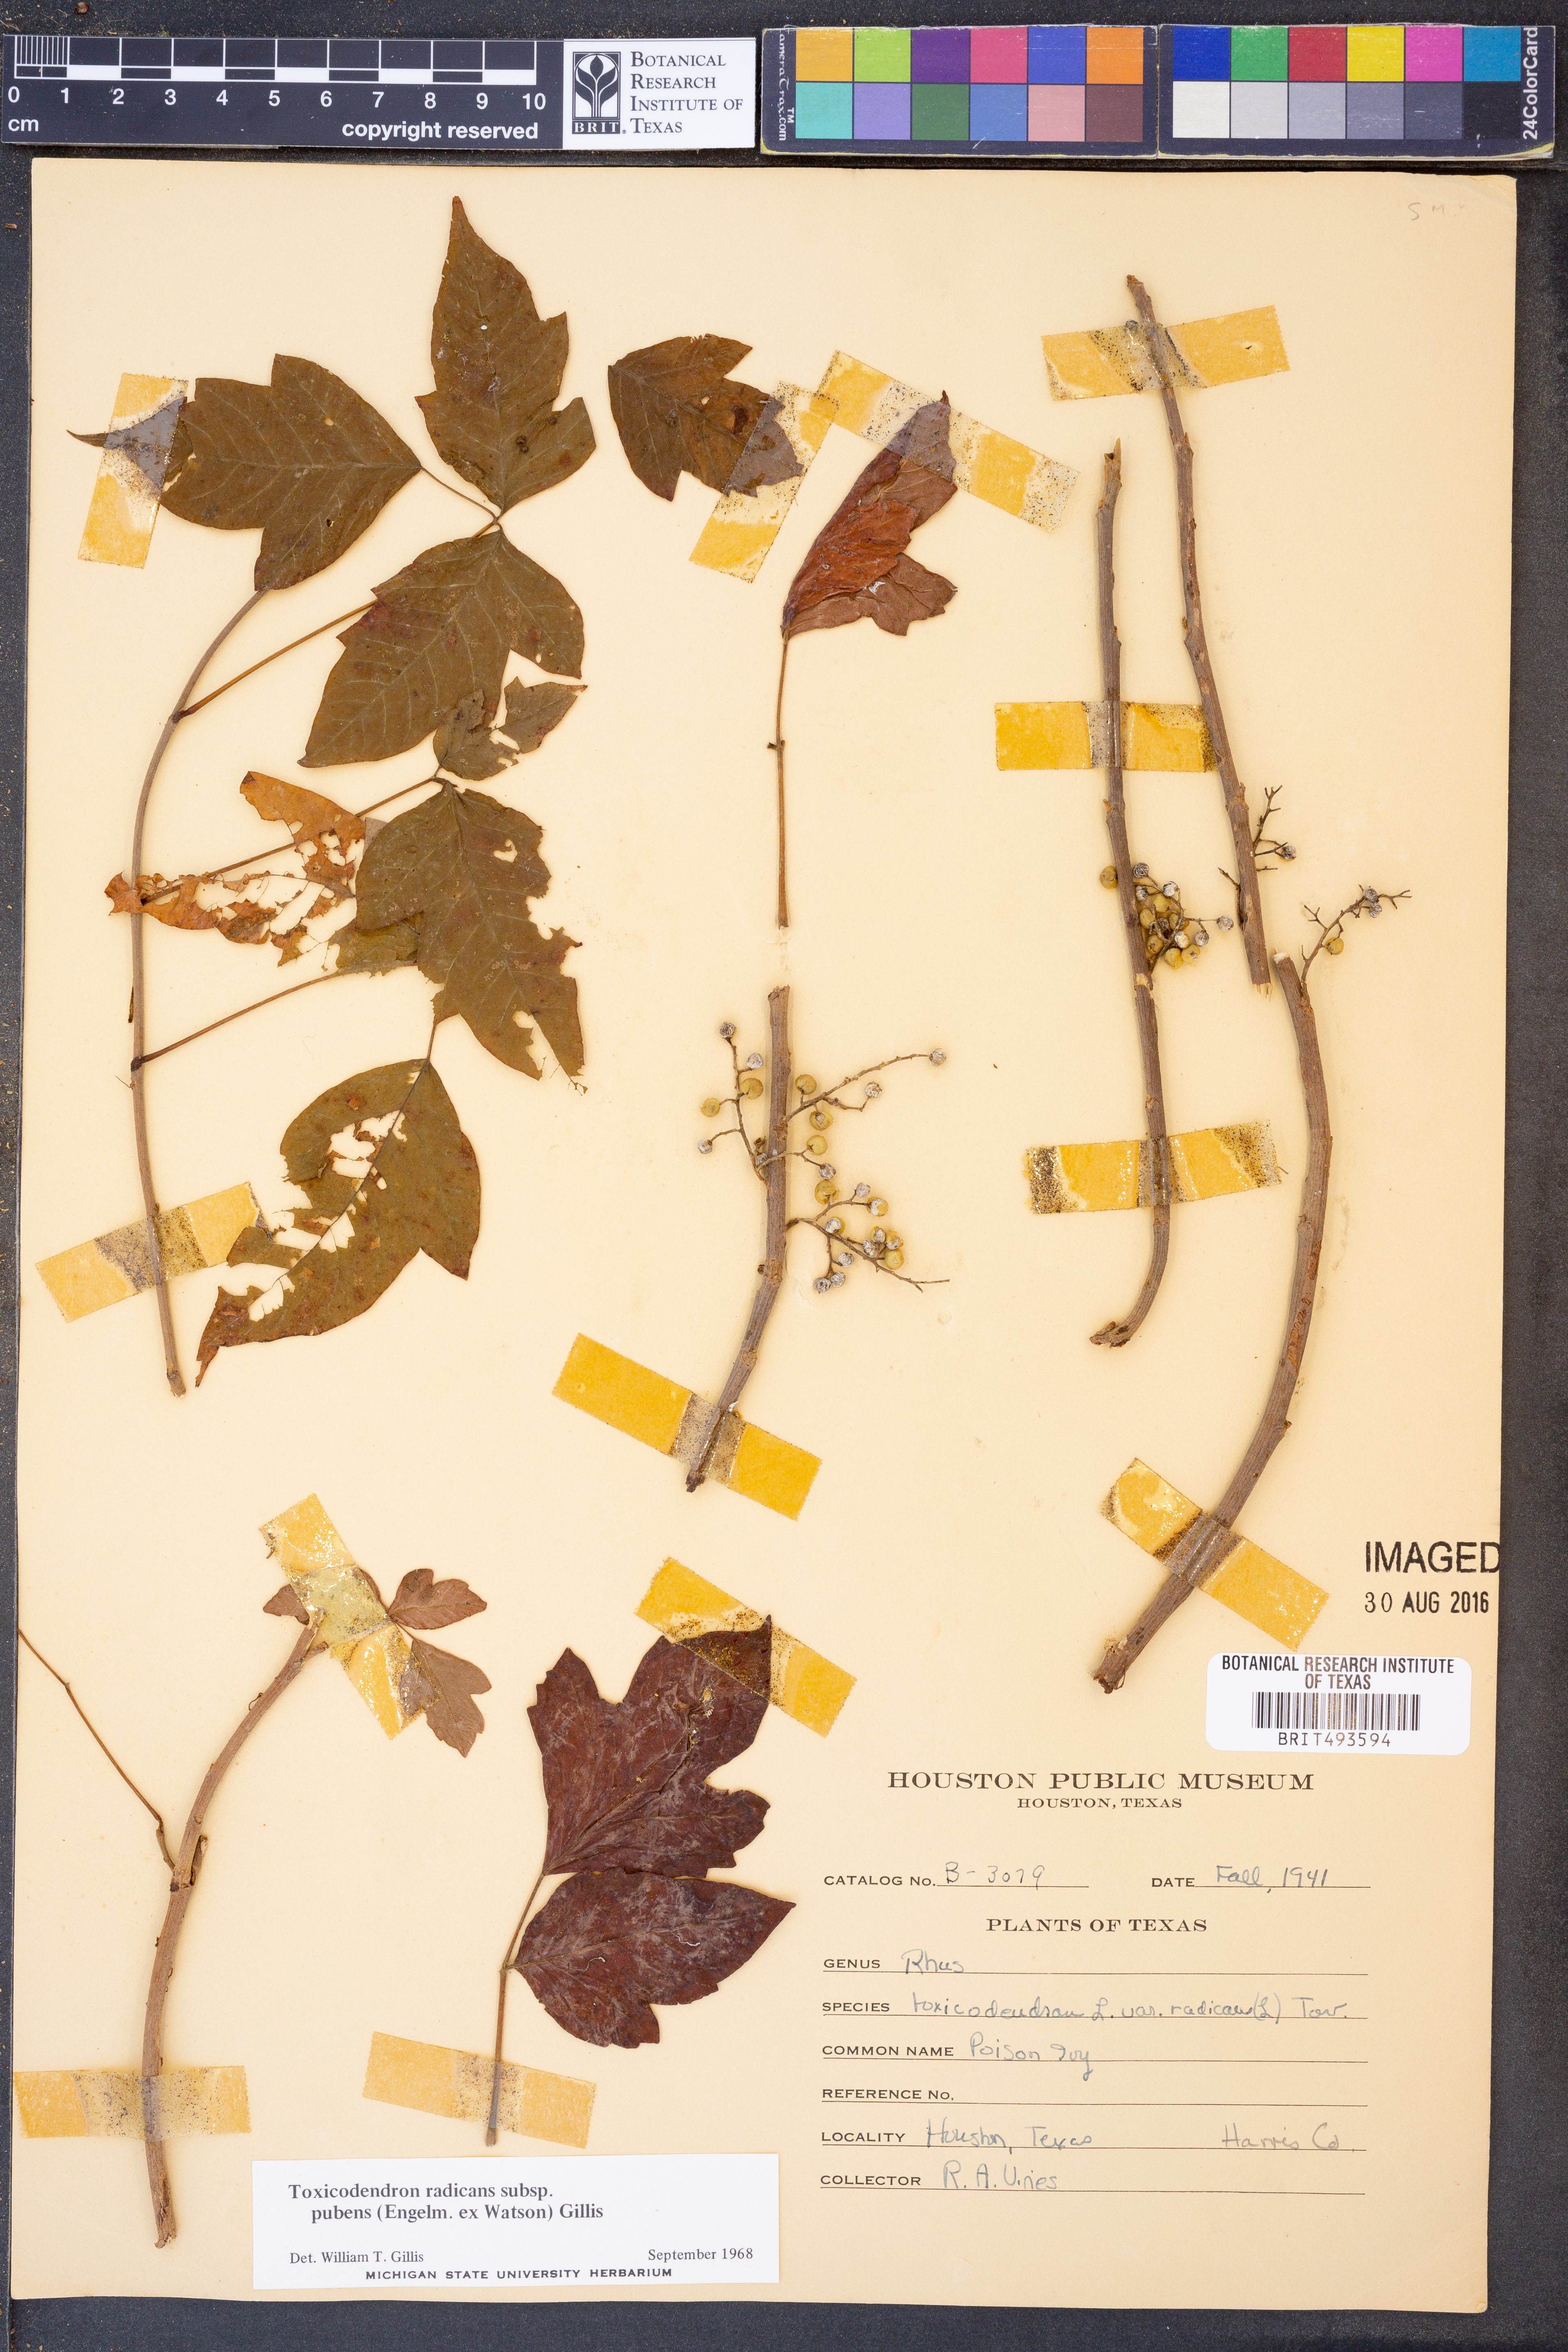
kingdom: Plantae
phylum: Tracheophyta
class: Magnoliopsida
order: Sapindales
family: Anacardiaceae
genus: Toxicodendron
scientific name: Toxicodendron radicans
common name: Poison ivy
